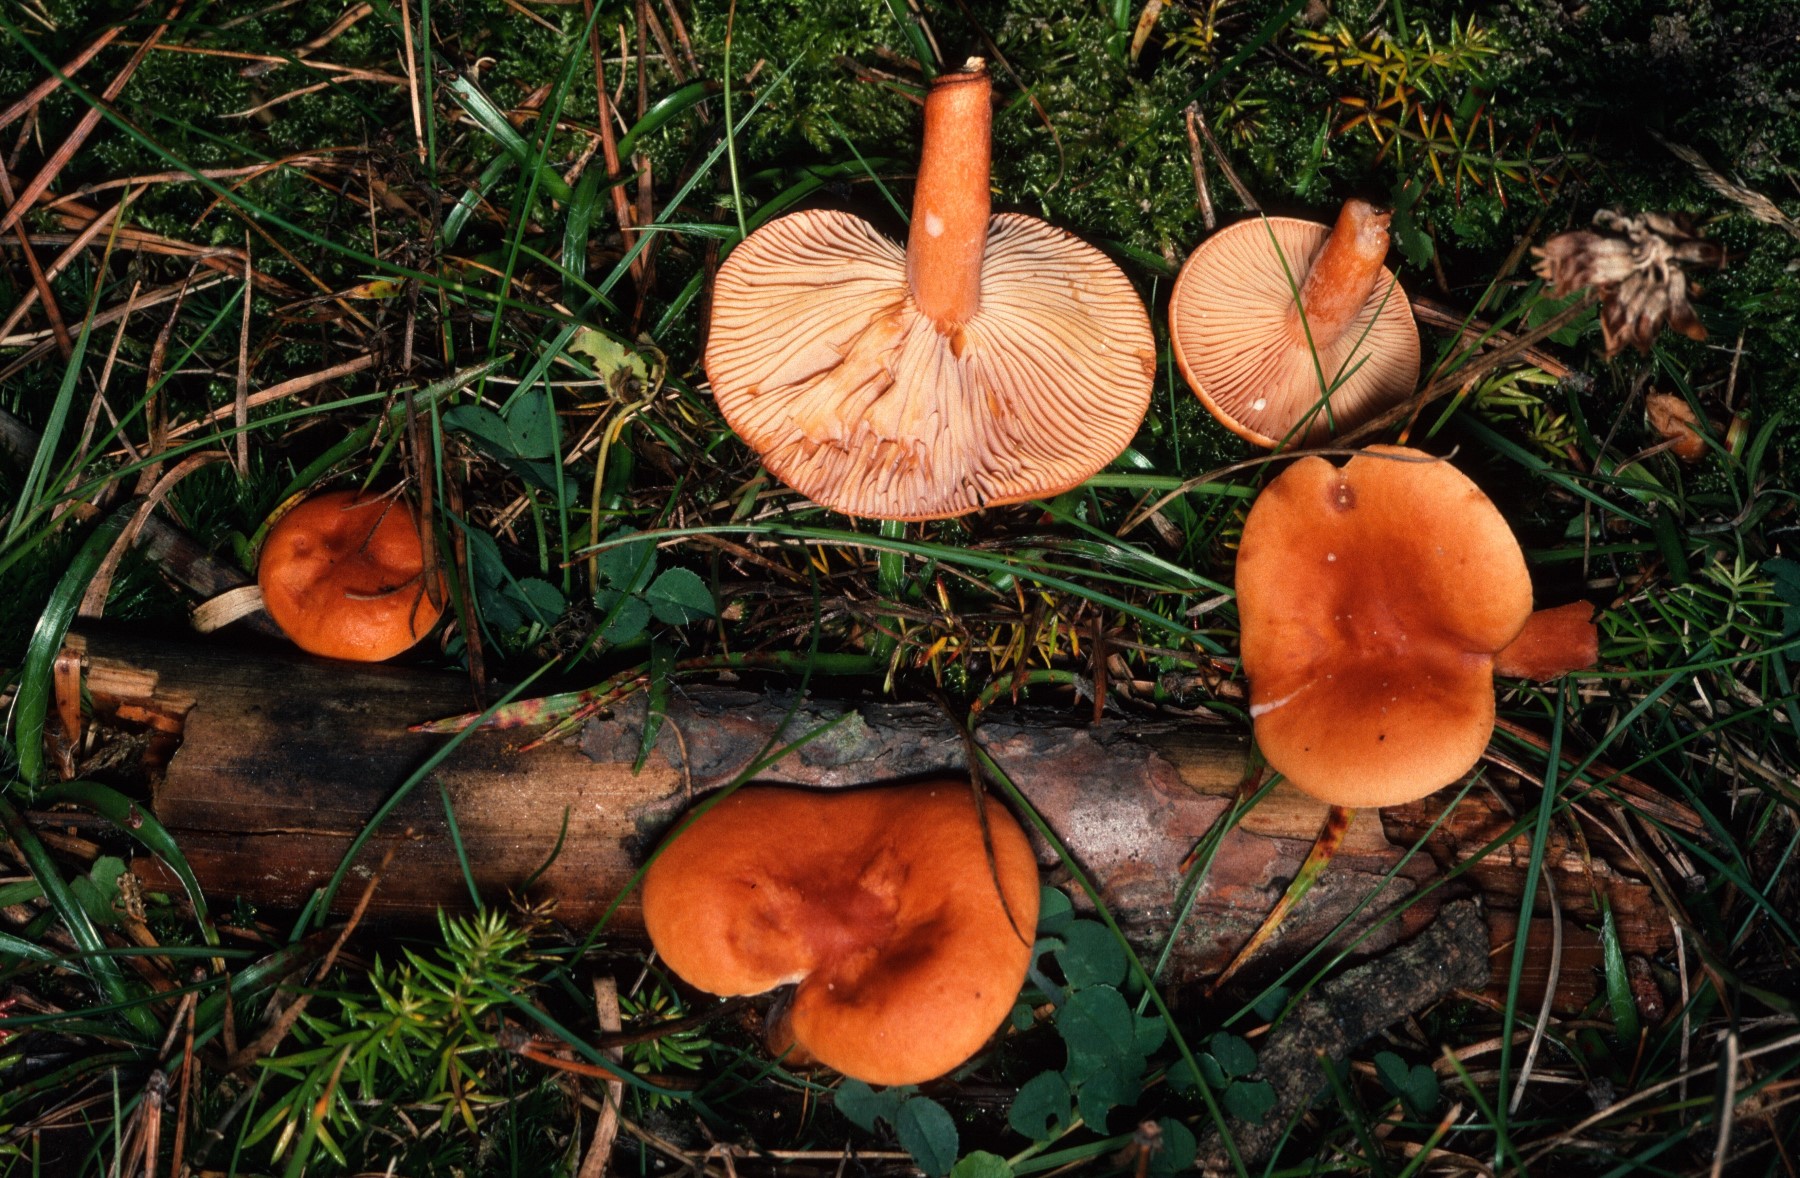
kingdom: Fungi
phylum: Basidiomycota
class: Agaricomycetes
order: Russulales
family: Russulaceae
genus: Lactarius
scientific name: Lactarius aurantiacus
